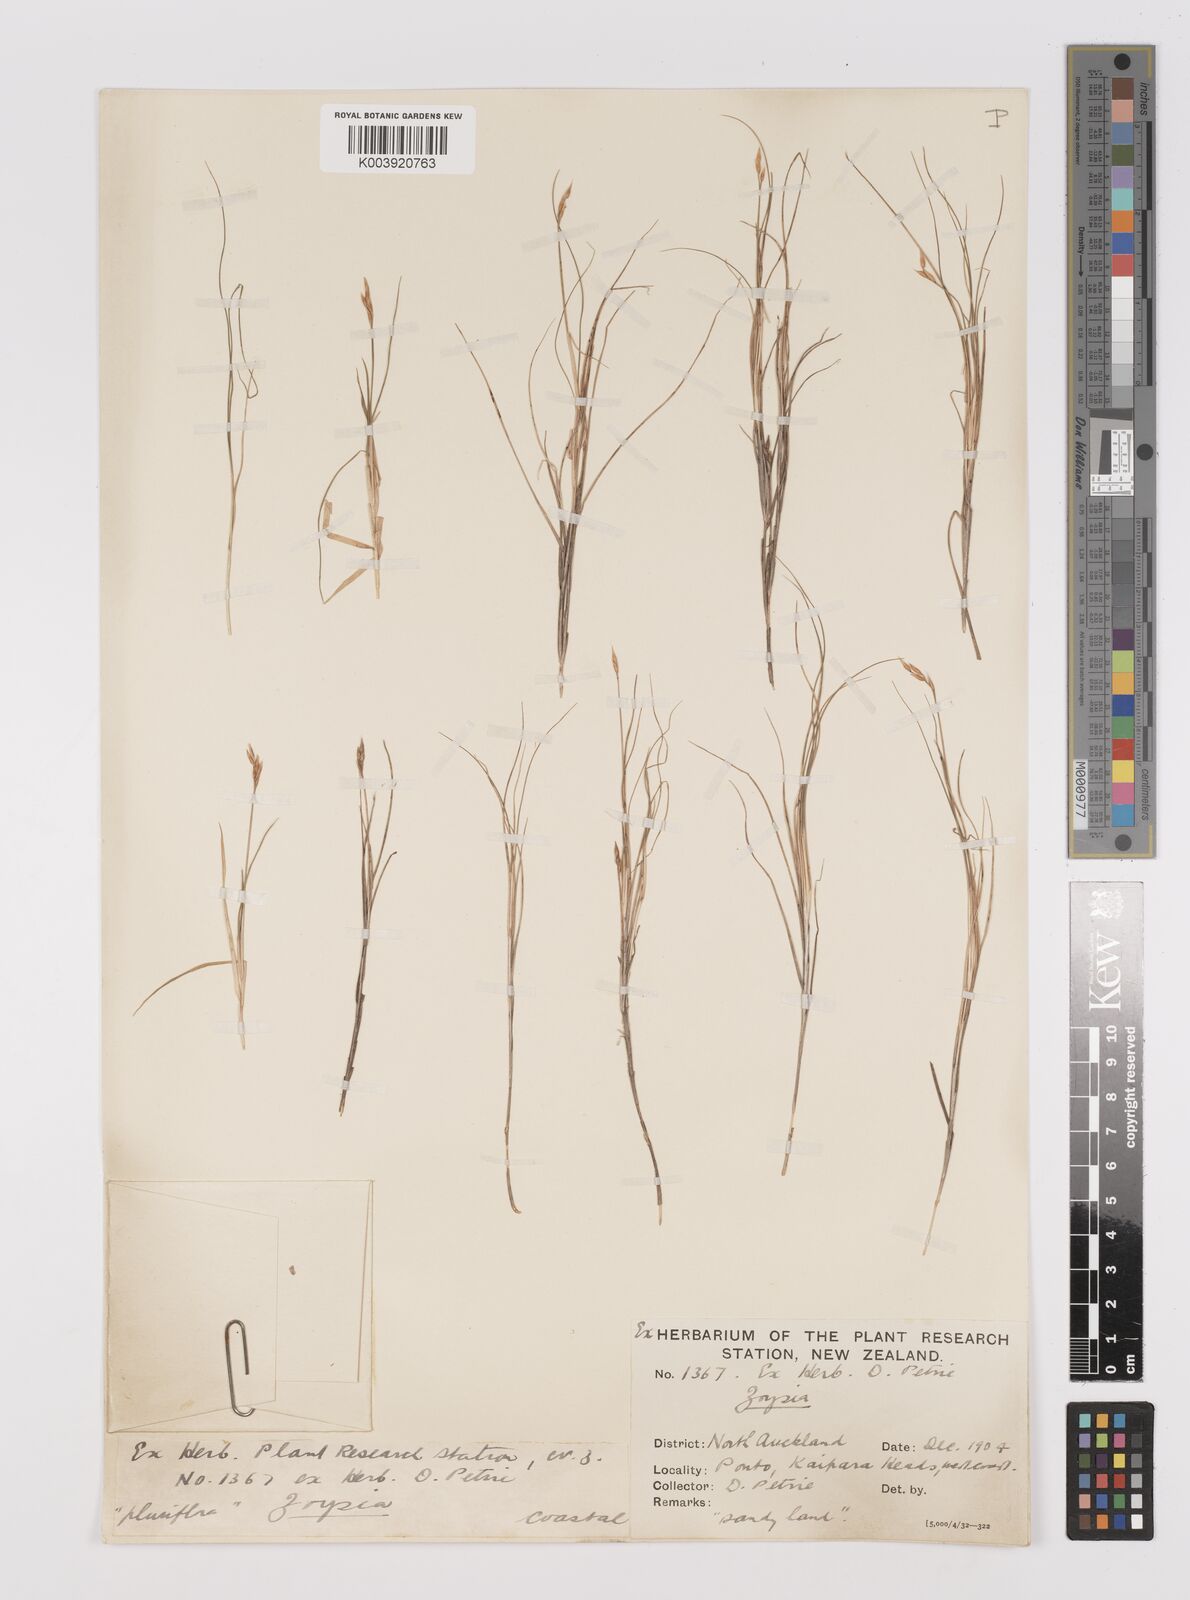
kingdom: Plantae
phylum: Tracheophyta
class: Liliopsida
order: Poales
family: Poaceae
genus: Zoysia
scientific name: Zoysia pauciflora
